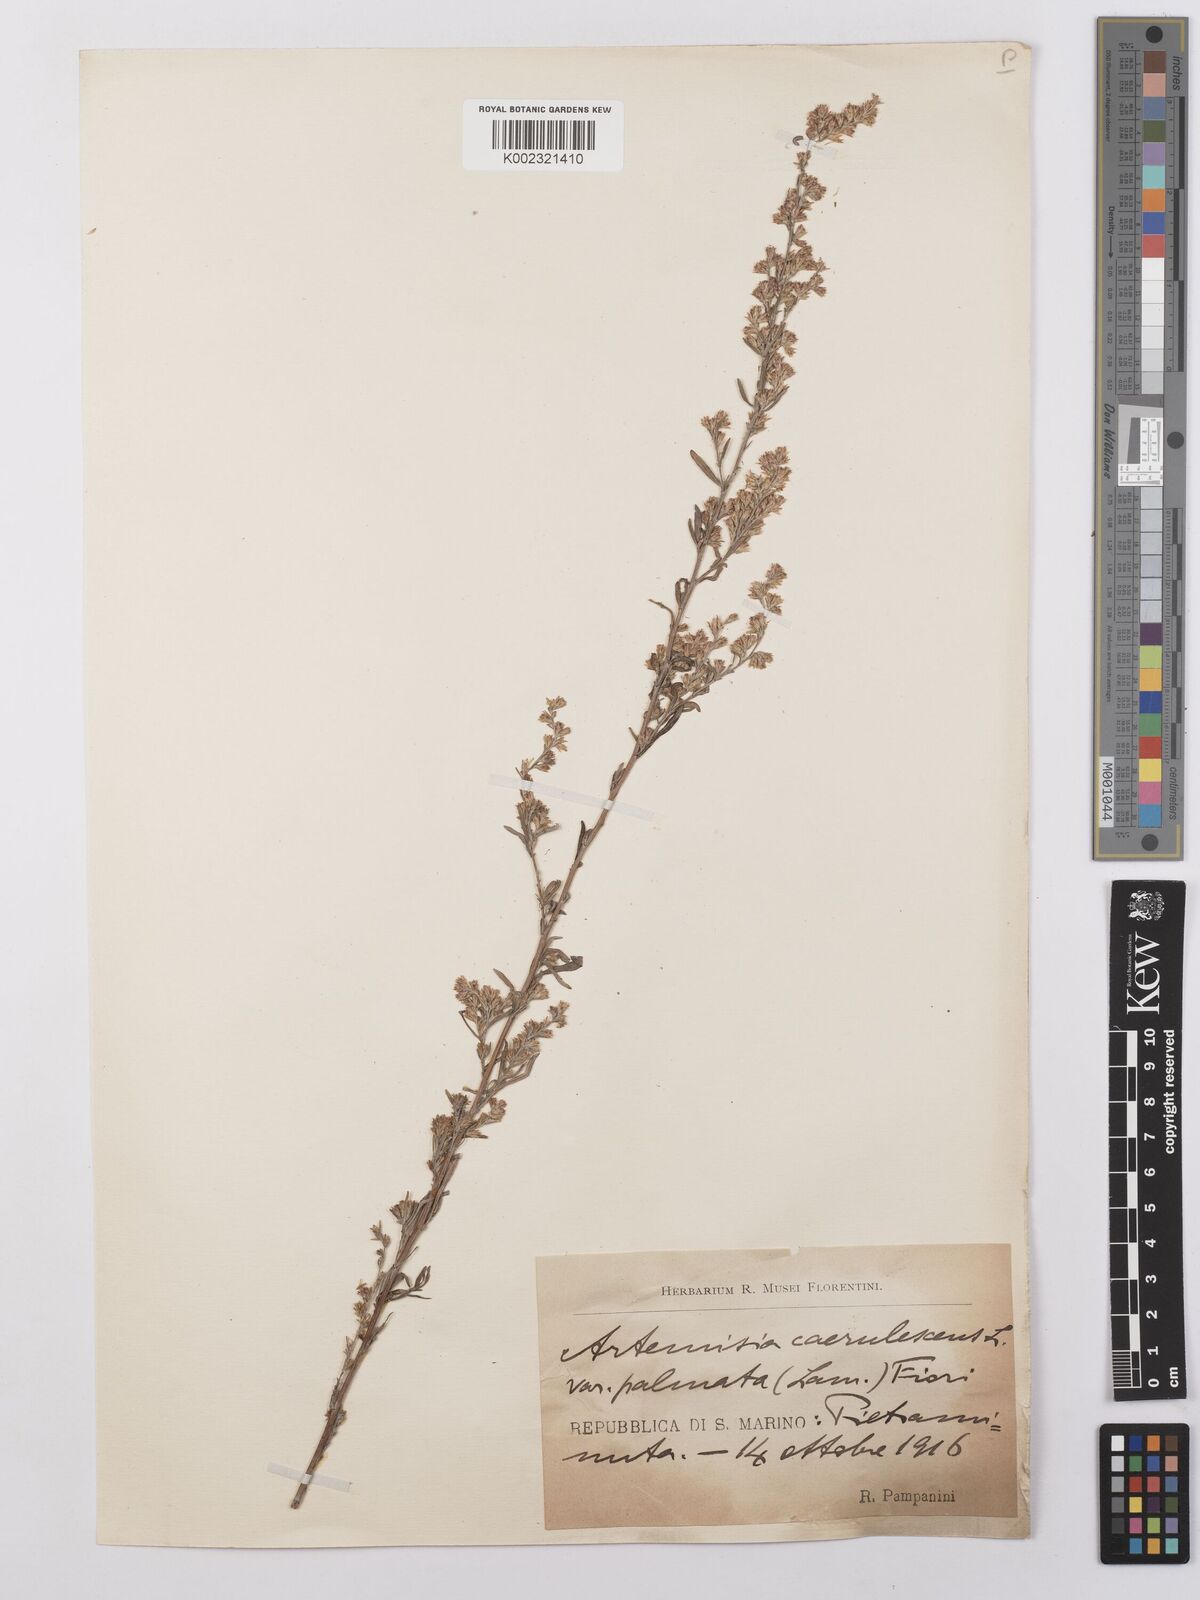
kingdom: Plantae
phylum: Tracheophyta
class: Magnoliopsida
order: Asterales
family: Asteraceae
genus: Artemisia
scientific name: Artemisia caerulescens
